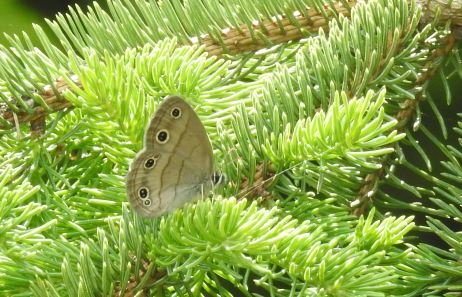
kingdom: Animalia
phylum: Arthropoda
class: Insecta
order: Lepidoptera
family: Nymphalidae
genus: Euptychia
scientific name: Euptychia cymela
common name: Little Wood Satyr
